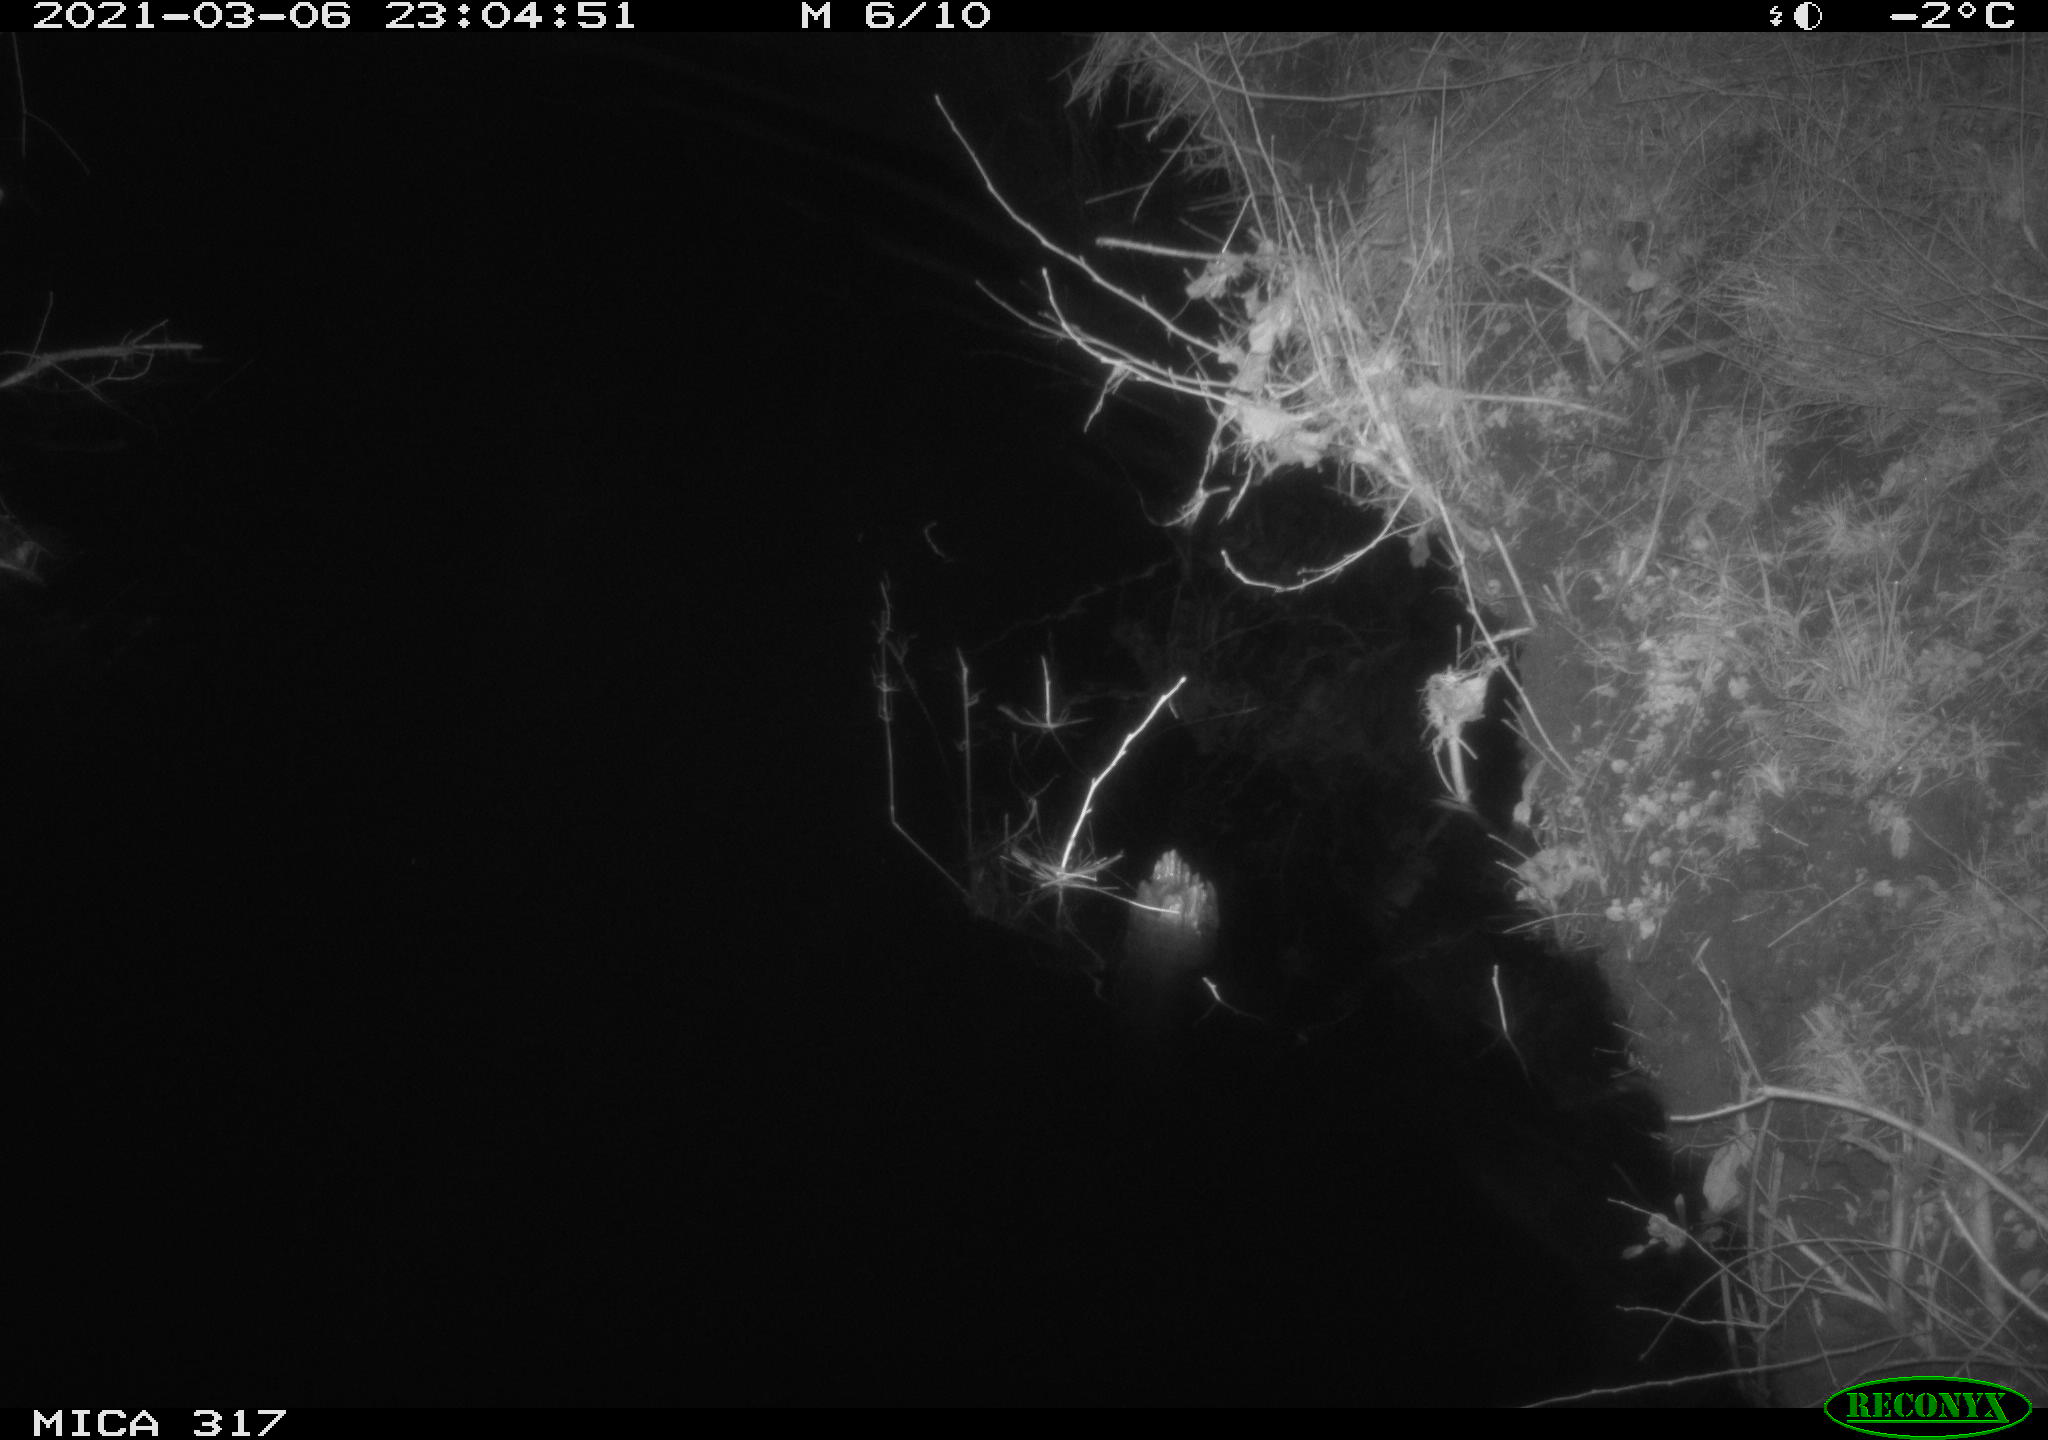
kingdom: Animalia
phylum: Chordata
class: Aves
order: Anseriformes
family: Anatidae
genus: Anas
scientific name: Anas platyrhynchos
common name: Mallard
